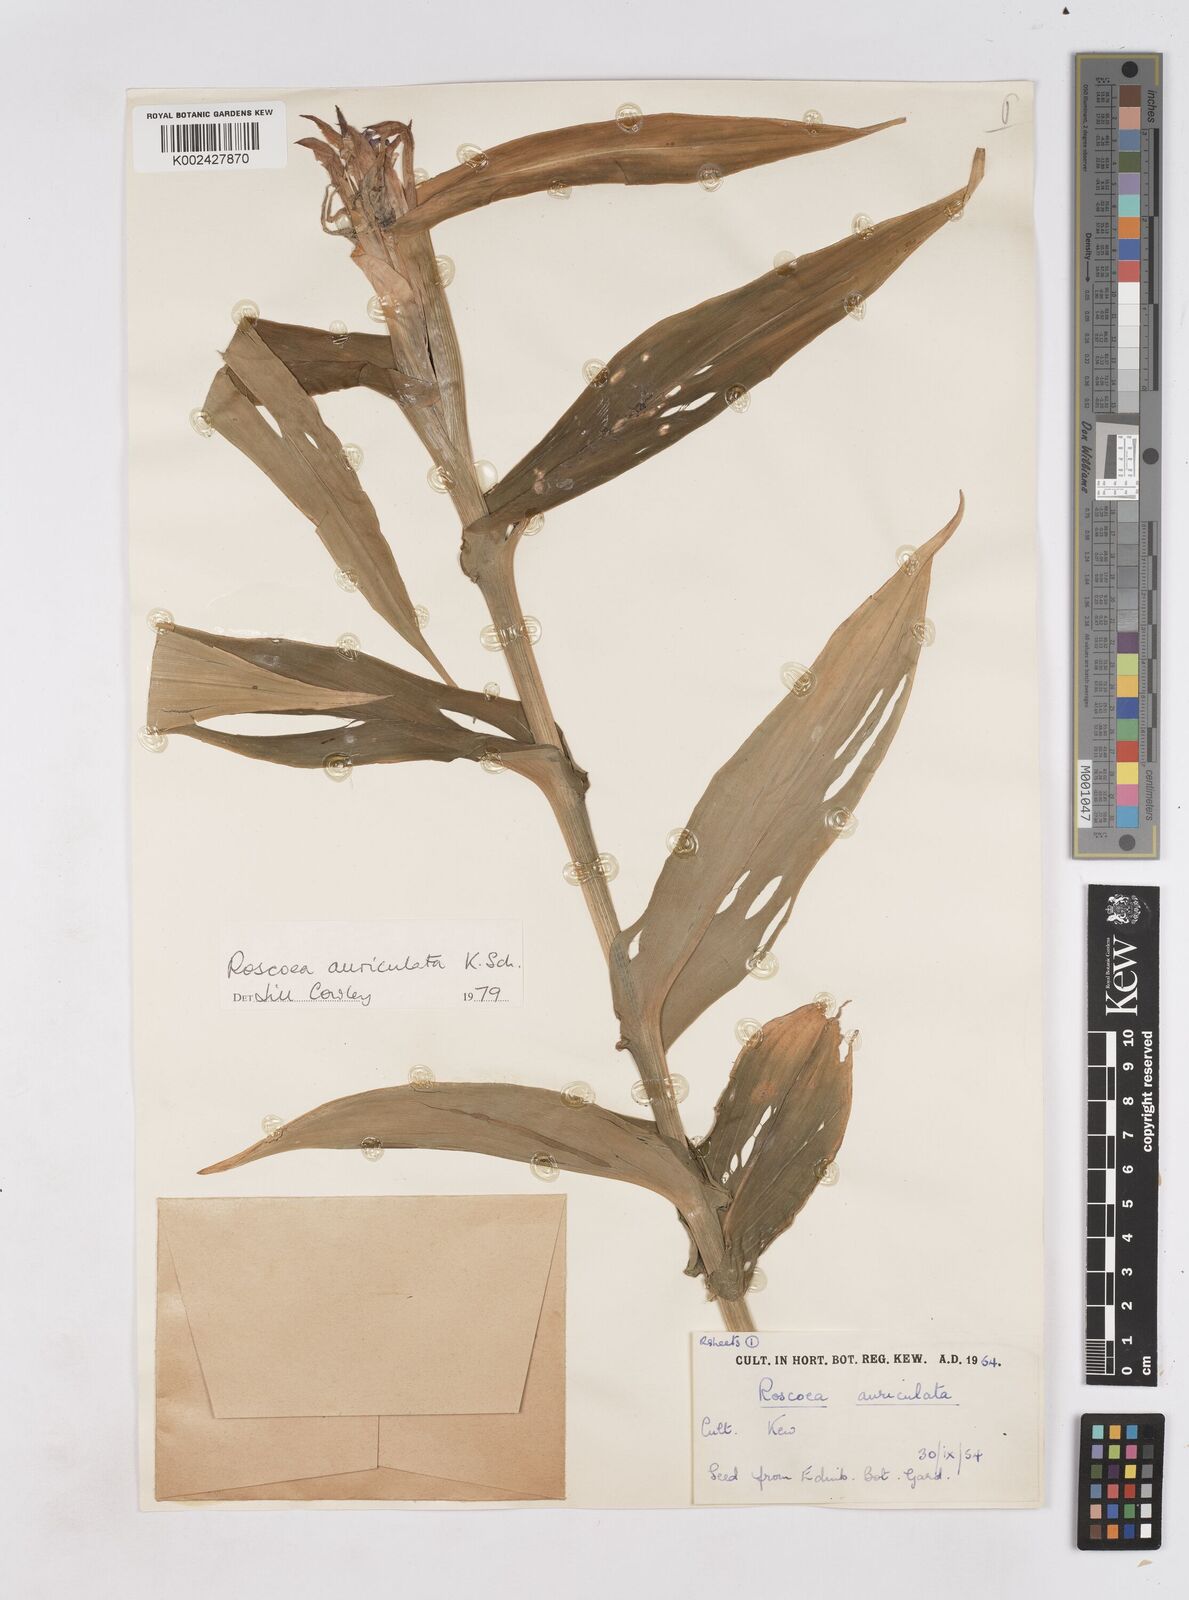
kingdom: Plantae
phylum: Tracheophyta
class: Liliopsida
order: Zingiberales
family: Zingiberaceae
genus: Roscoea
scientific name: Roscoea auriculata
